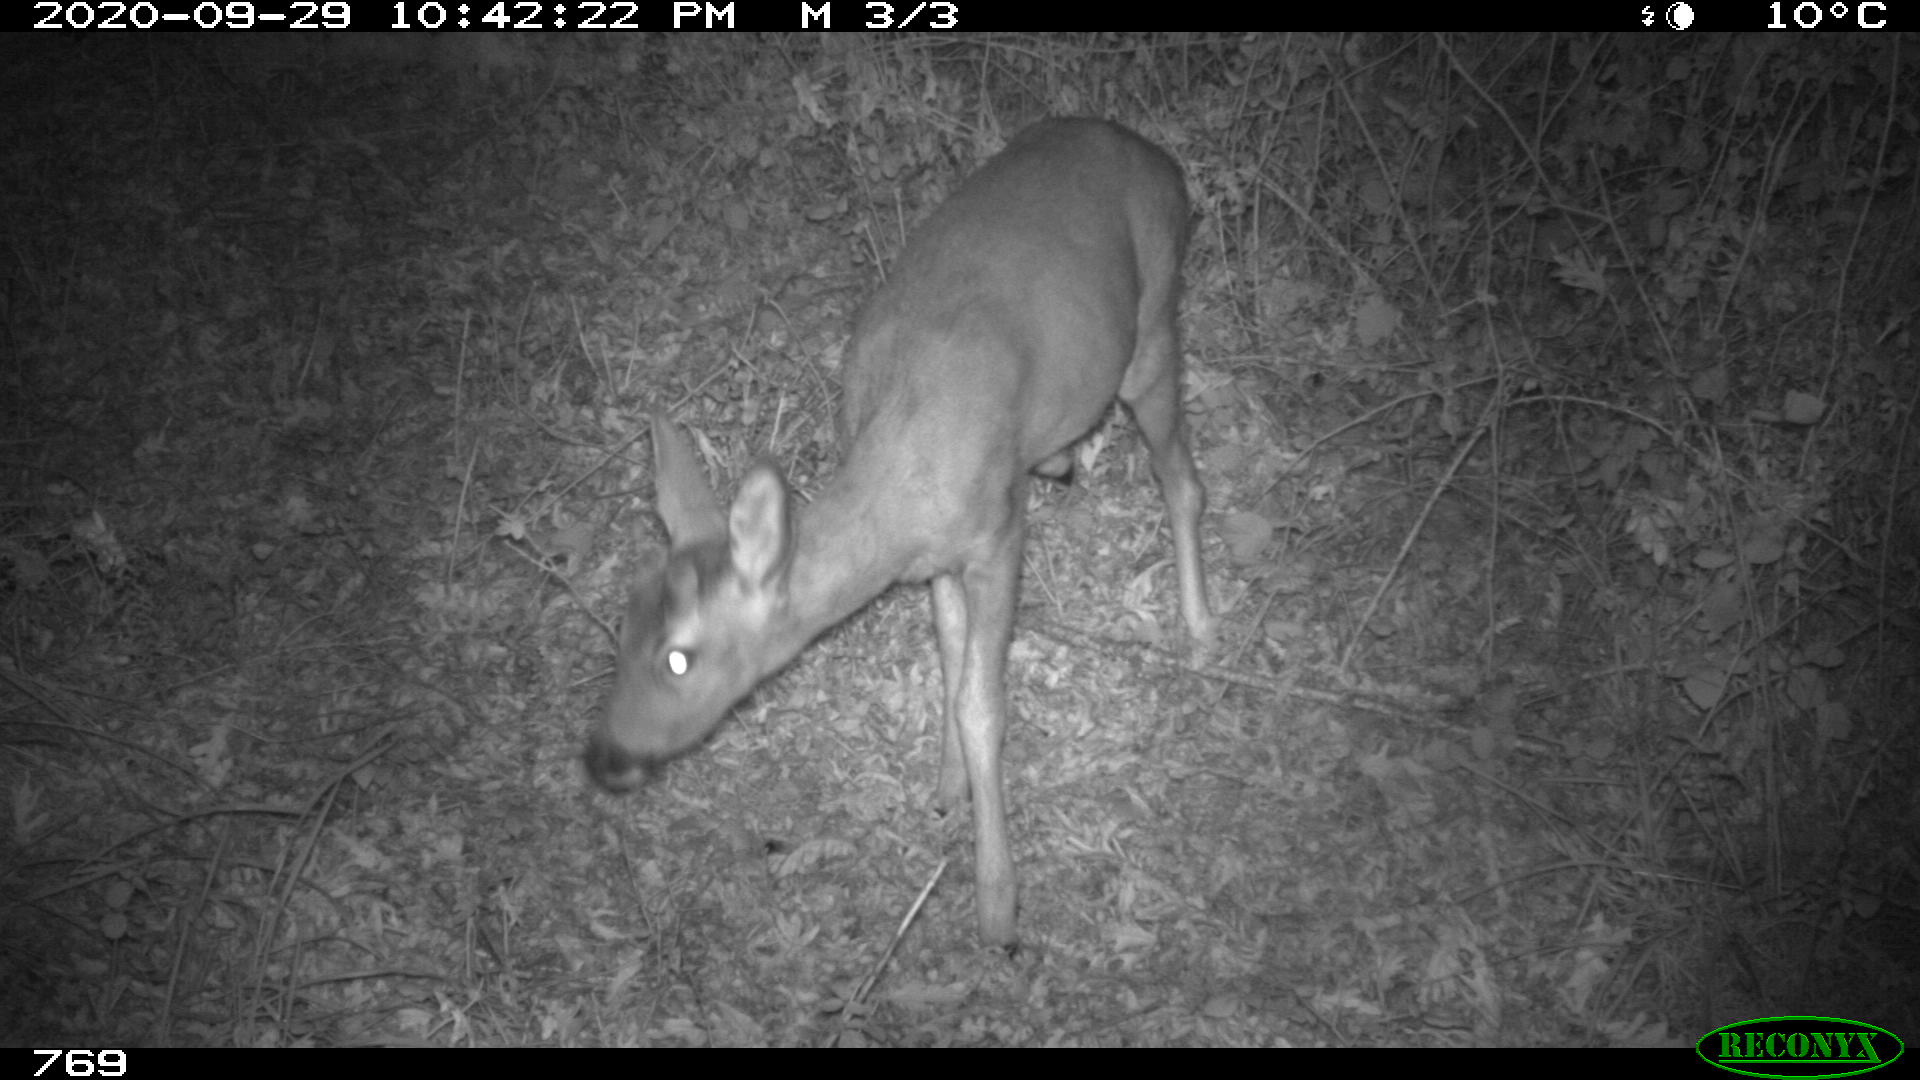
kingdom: Animalia
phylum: Chordata
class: Mammalia
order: Artiodactyla
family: Cervidae
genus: Capreolus
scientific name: Capreolus capreolus
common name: Western roe deer
